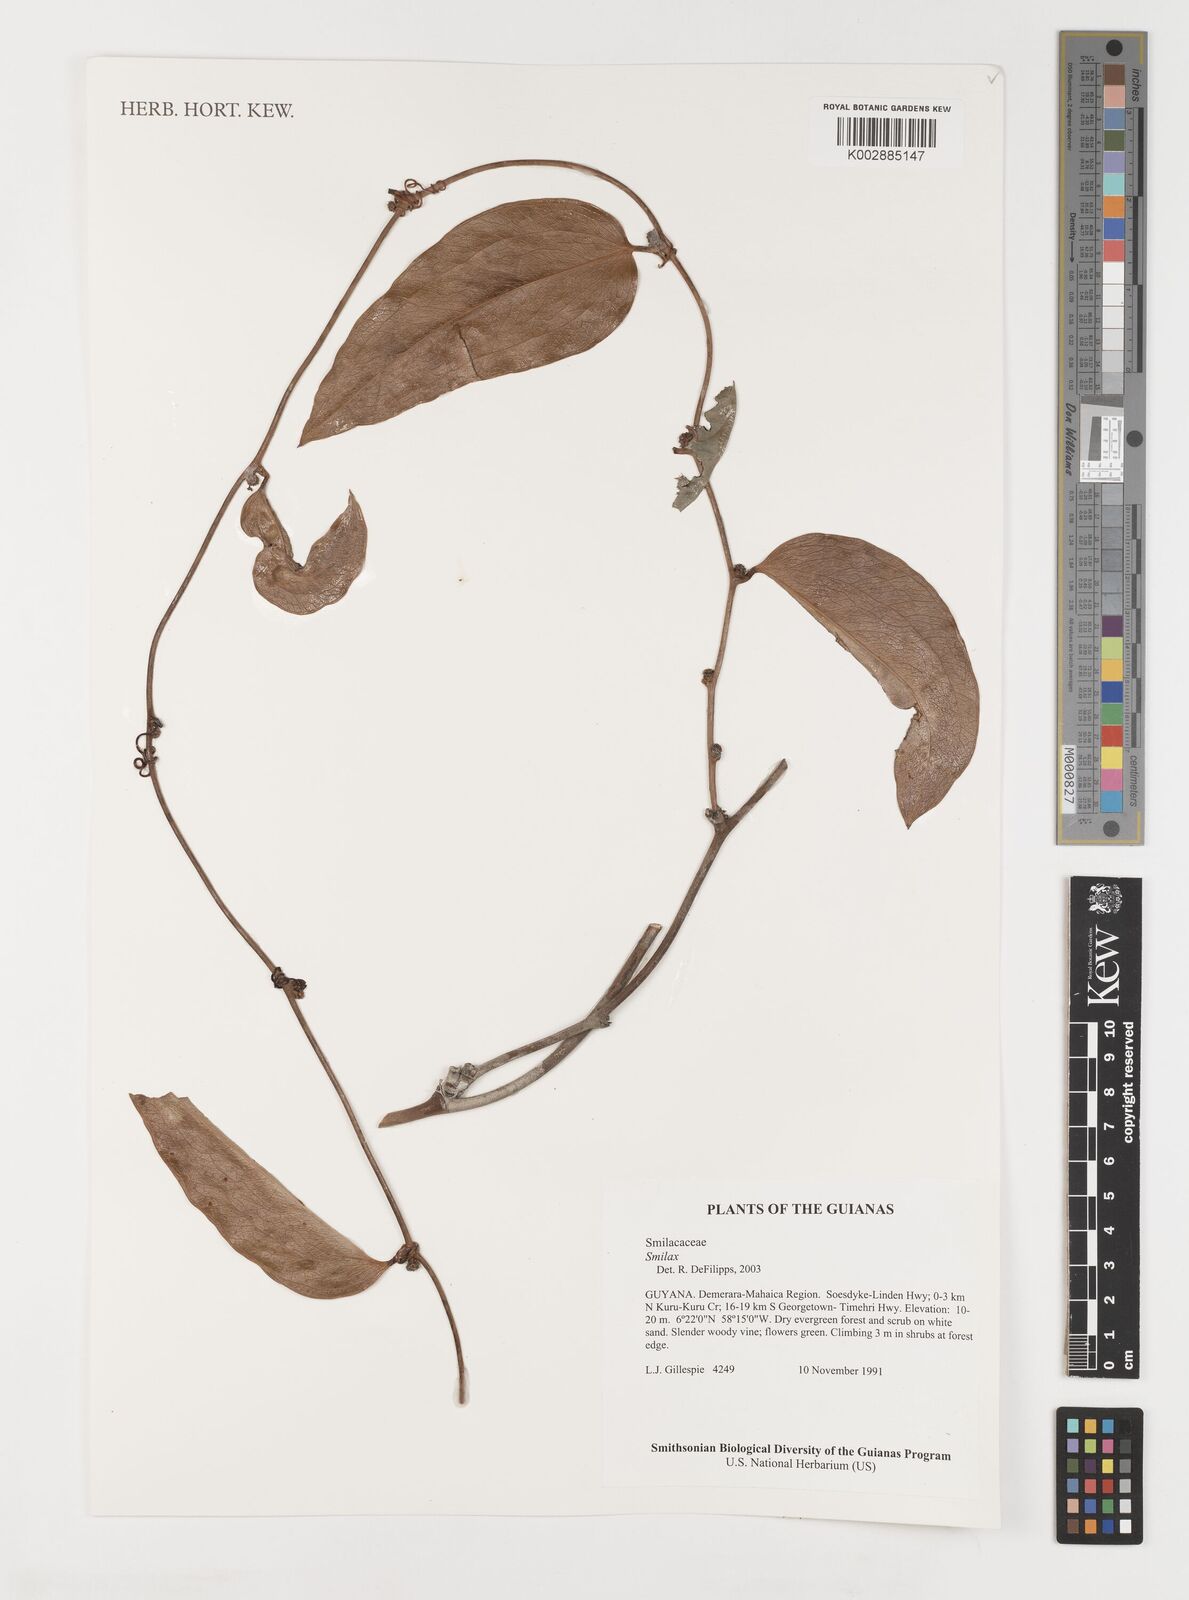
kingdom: Plantae
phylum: Tracheophyta
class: Liliopsida
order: Liliales
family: Smilacaceae
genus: Smilax
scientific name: Smilax
